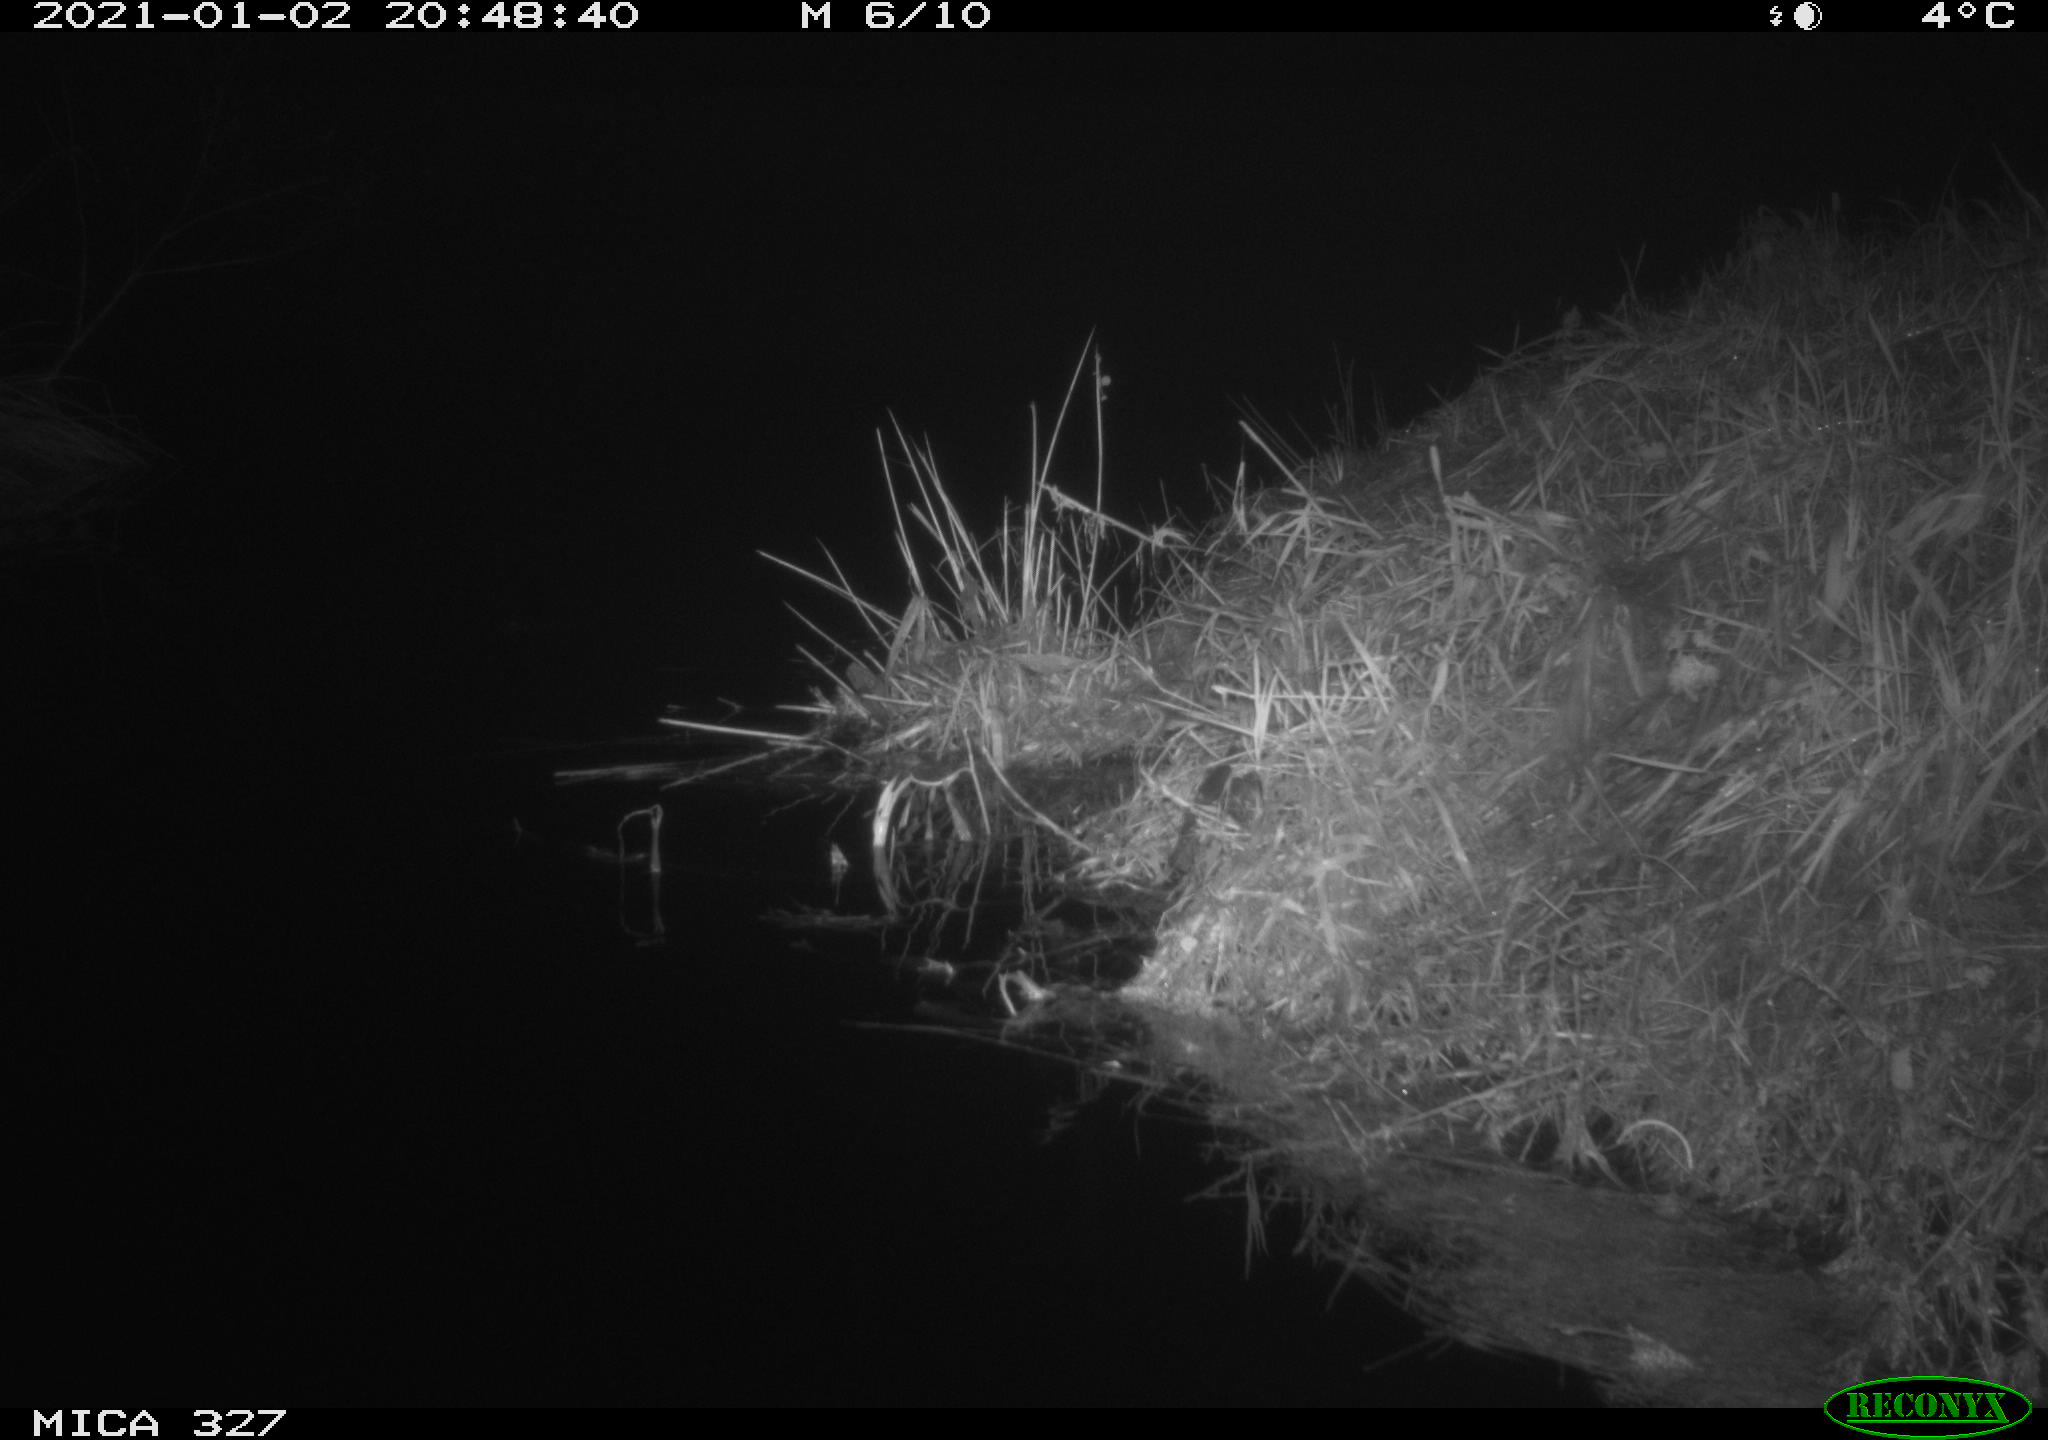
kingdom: Animalia
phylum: Chordata
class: Mammalia
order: Rodentia
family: Cricetidae
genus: Ondatra
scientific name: Ondatra zibethicus
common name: Muskrat
